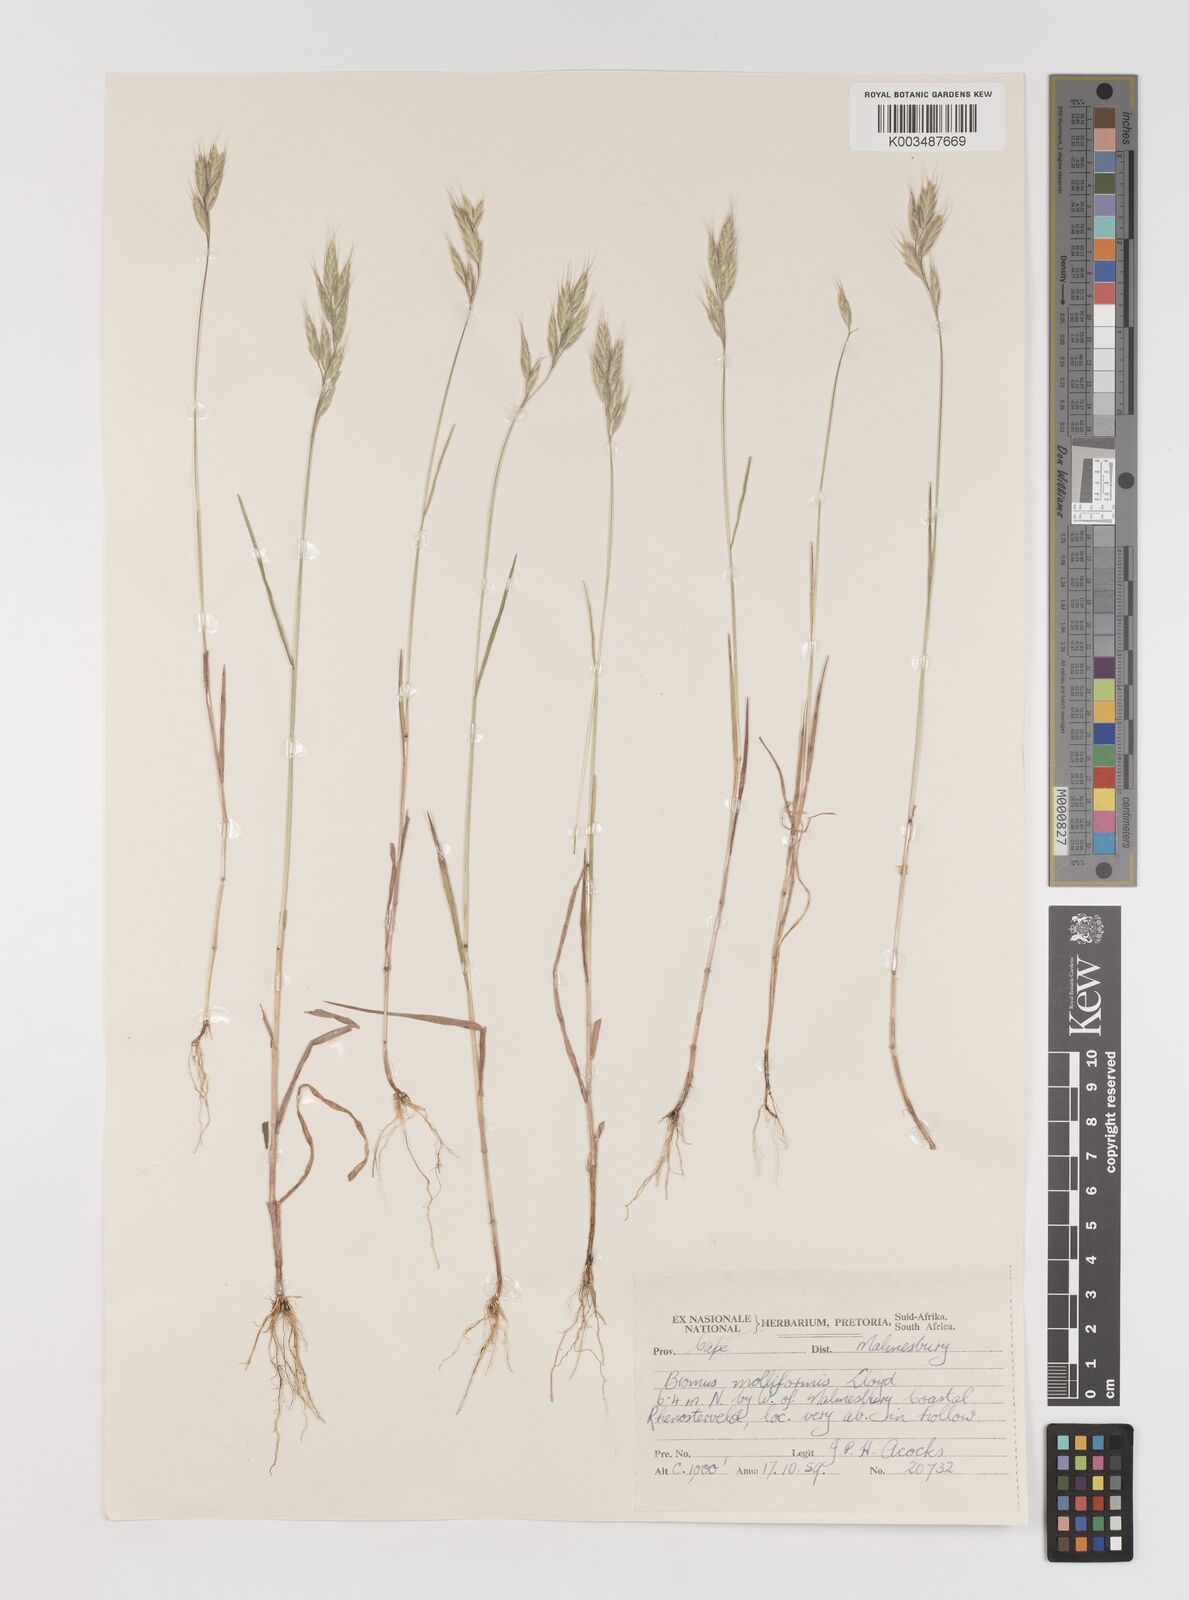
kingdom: Plantae
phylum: Tracheophyta
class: Liliopsida
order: Poales
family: Poaceae
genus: Bromus
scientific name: Bromus hordeaceus
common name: Soft brome
